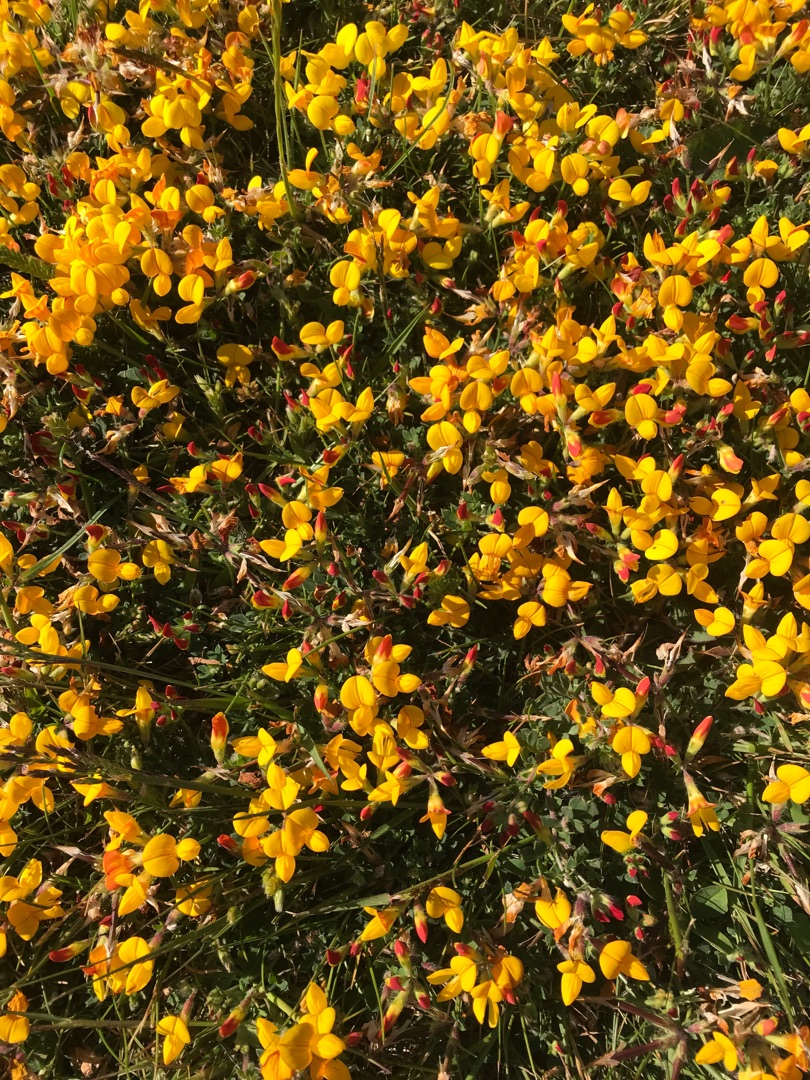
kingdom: Plantae
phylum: Tracheophyta
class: Magnoliopsida
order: Fabales
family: Fabaceae
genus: Lotus
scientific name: Lotus corniculatus
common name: Almindelig kællingetand
